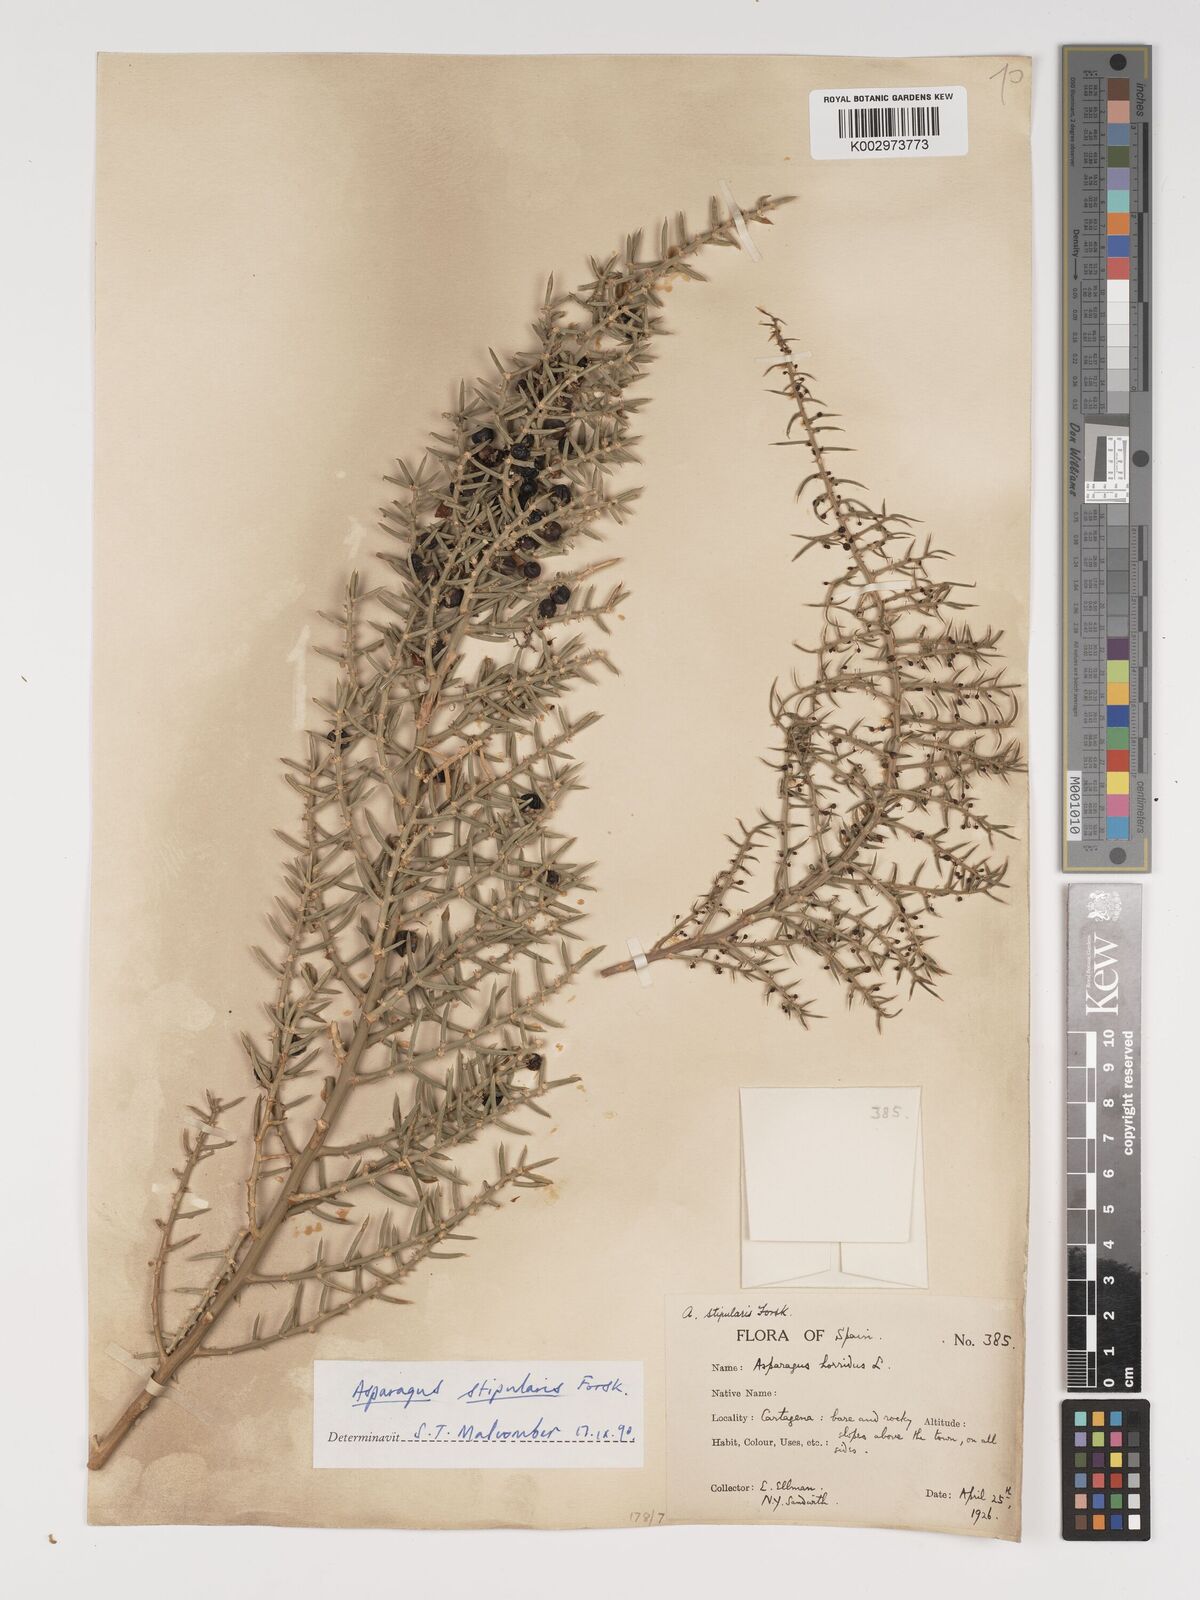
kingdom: Plantae
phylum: Tracheophyta
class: Liliopsida
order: Asparagales
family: Asparagaceae
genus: Asparagus
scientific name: Asparagus horridus
